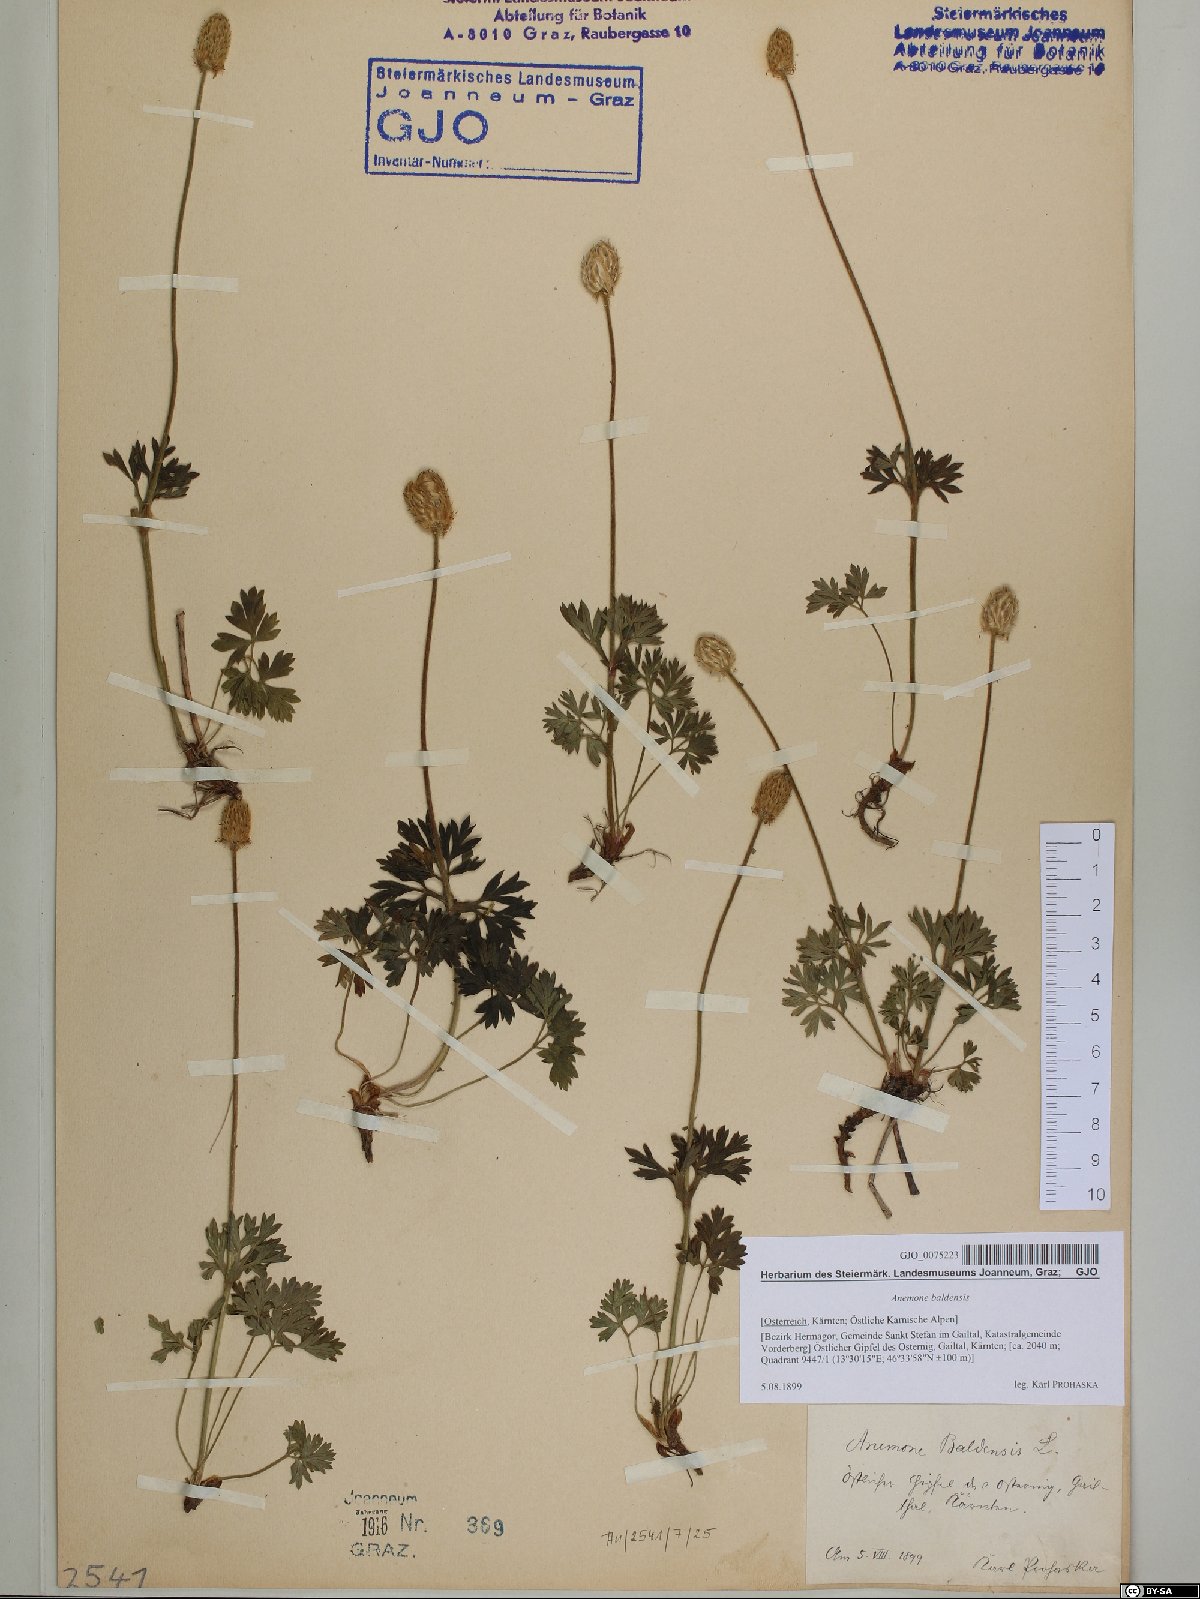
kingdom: Plantae
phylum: Tracheophyta
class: Magnoliopsida
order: Ranunculales
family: Ranunculaceae
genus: Anemone
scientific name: Anemone baldensis
